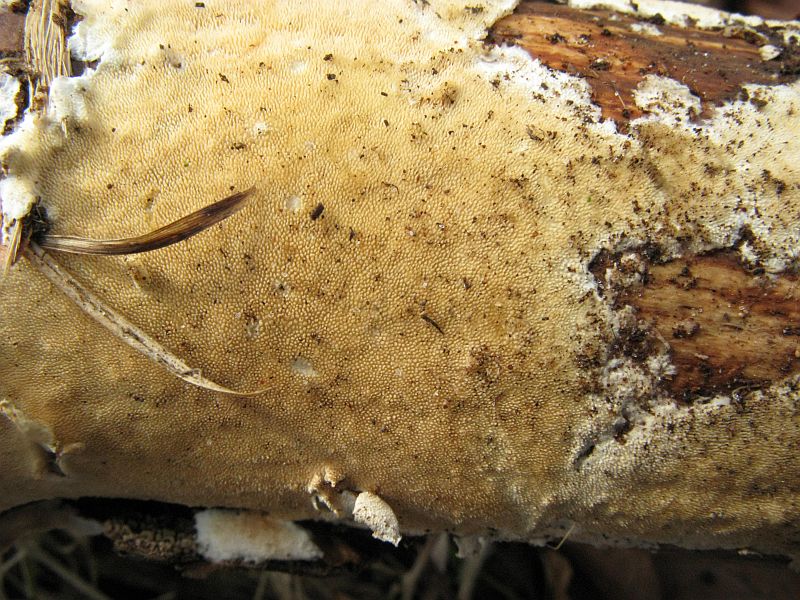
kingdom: Fungi
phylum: Basidiomycota
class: Agaricomycetes
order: Polyporales
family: Steccherinaceae
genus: Steccherinum
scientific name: Steccherinum ochraceum
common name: almindelig skønpig
